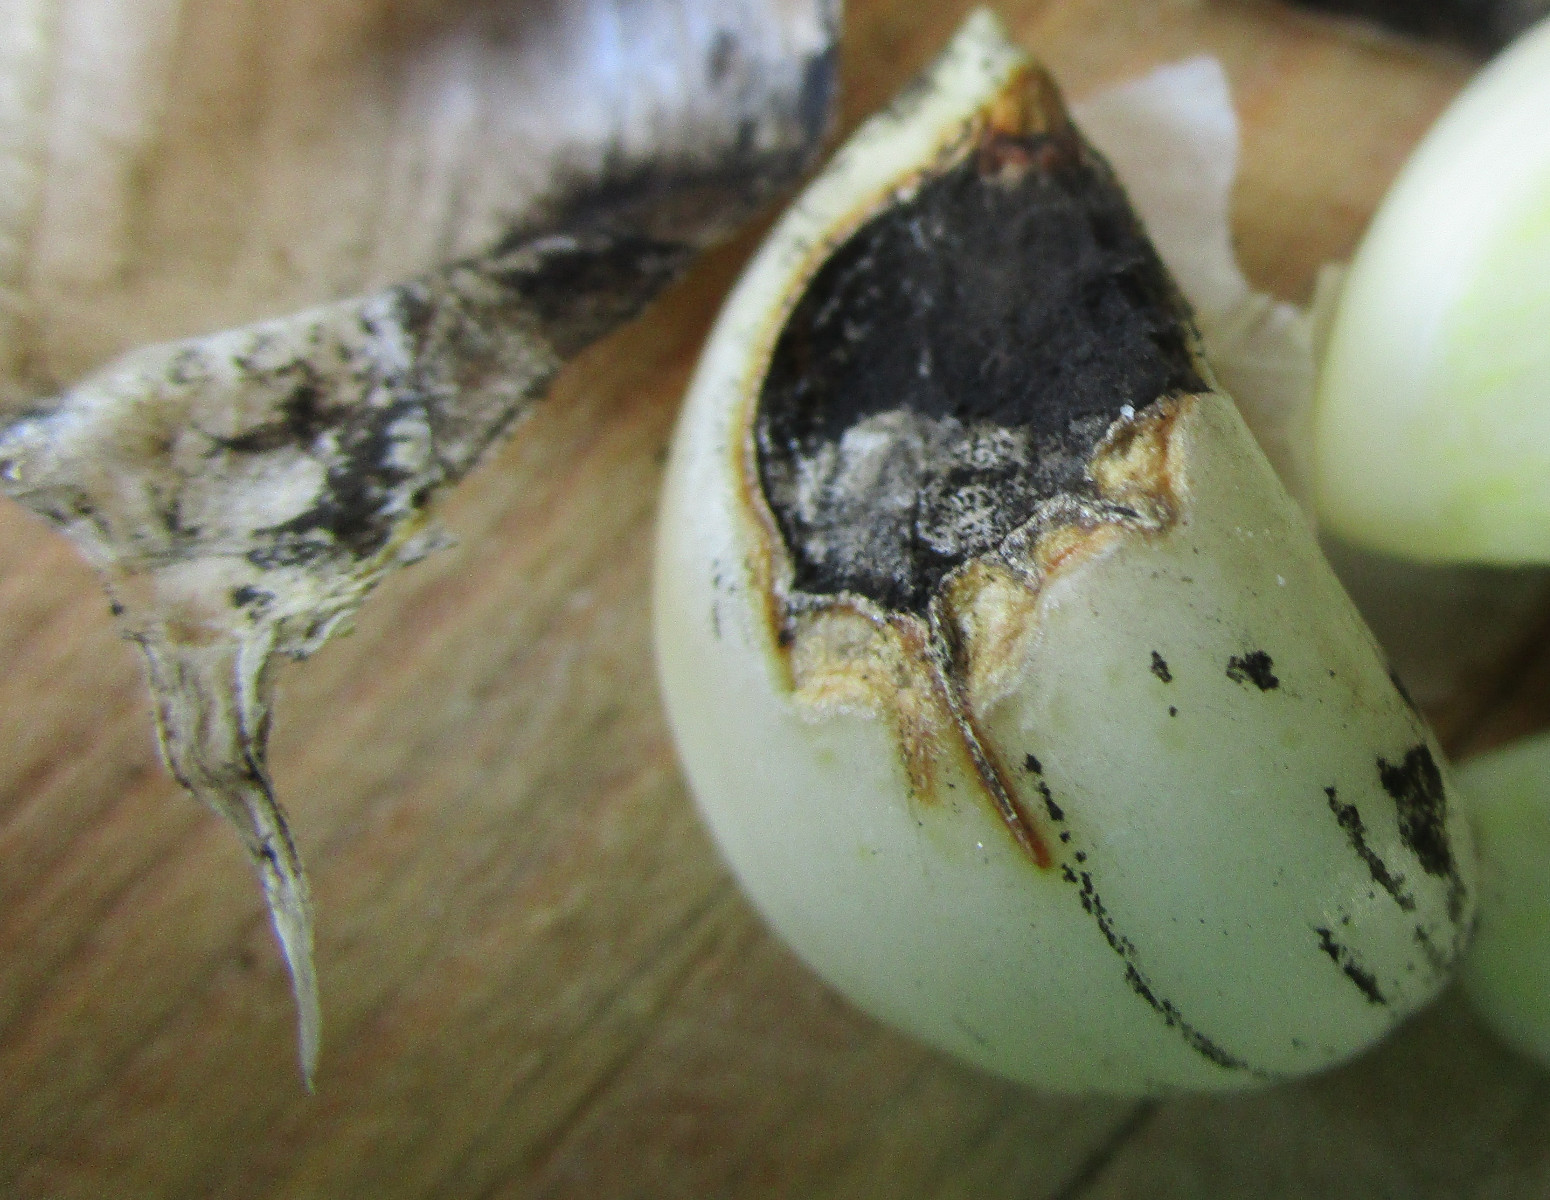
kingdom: Fungi
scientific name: Fungi
